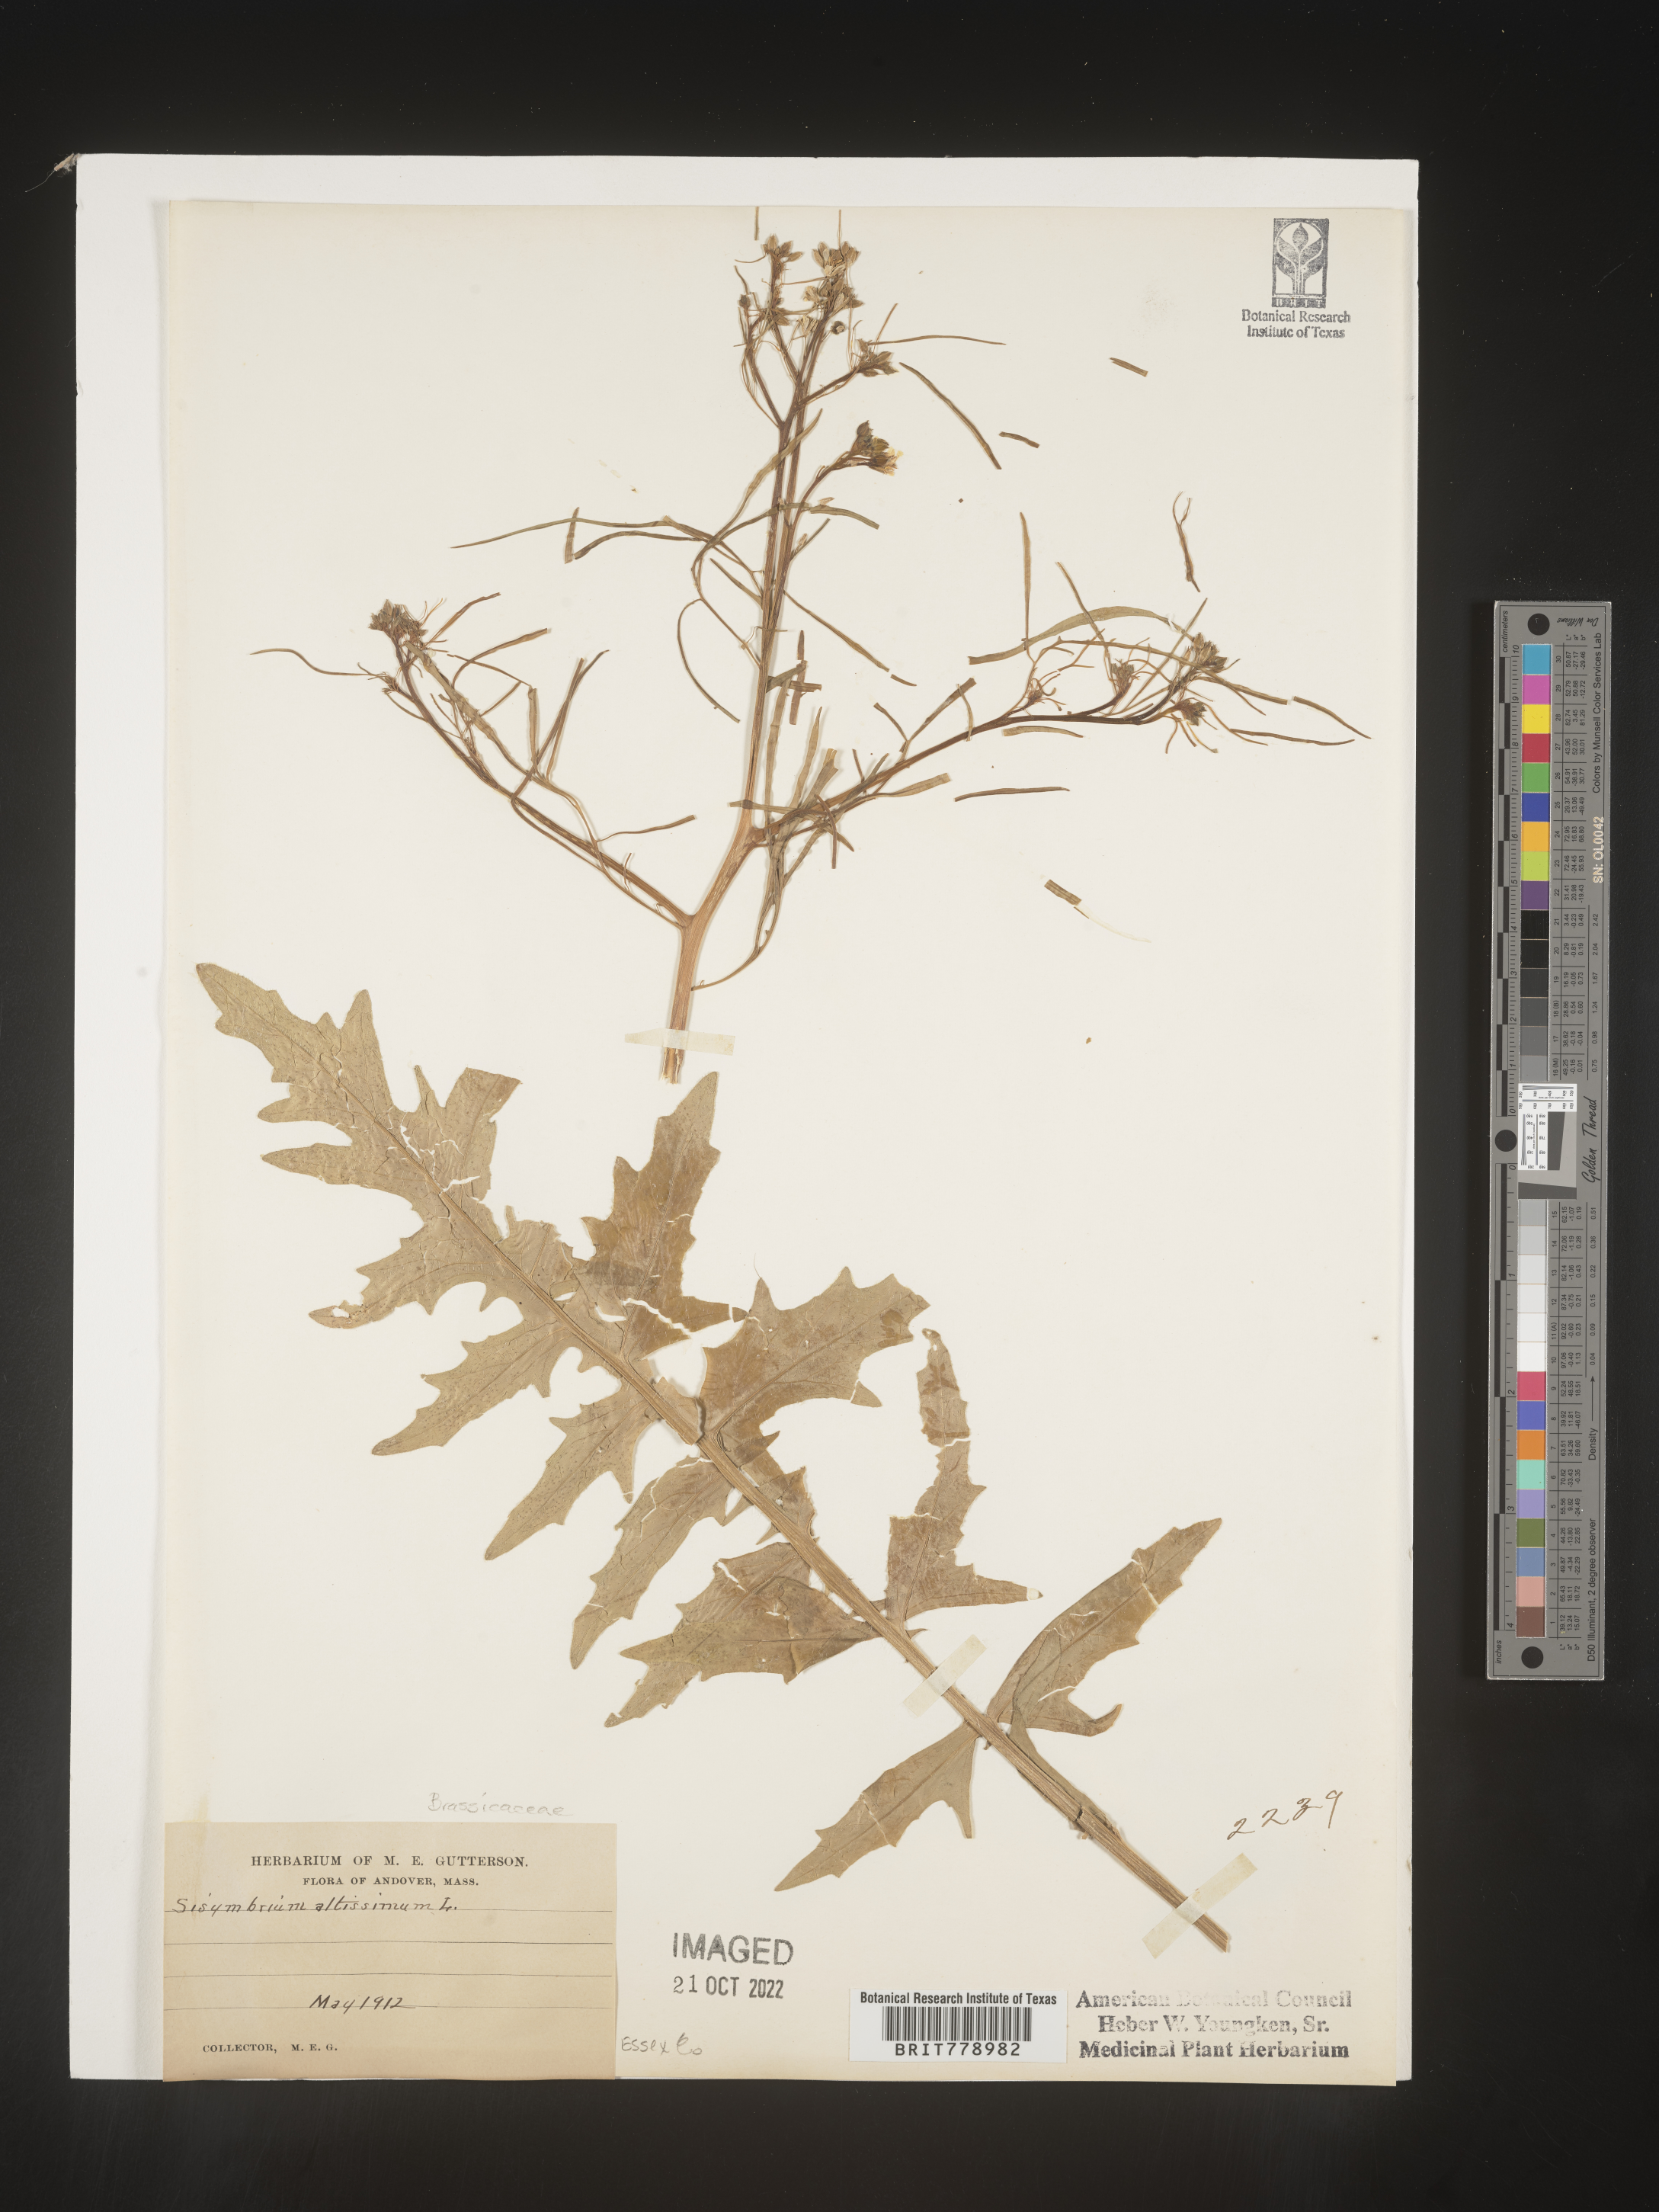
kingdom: Plantae
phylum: Tracheophyta
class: Magnoliopsida
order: Brassicales
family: Brassicaceae
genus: Sisymbrium
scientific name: Sisymbrium altissimum
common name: Tall rocket
